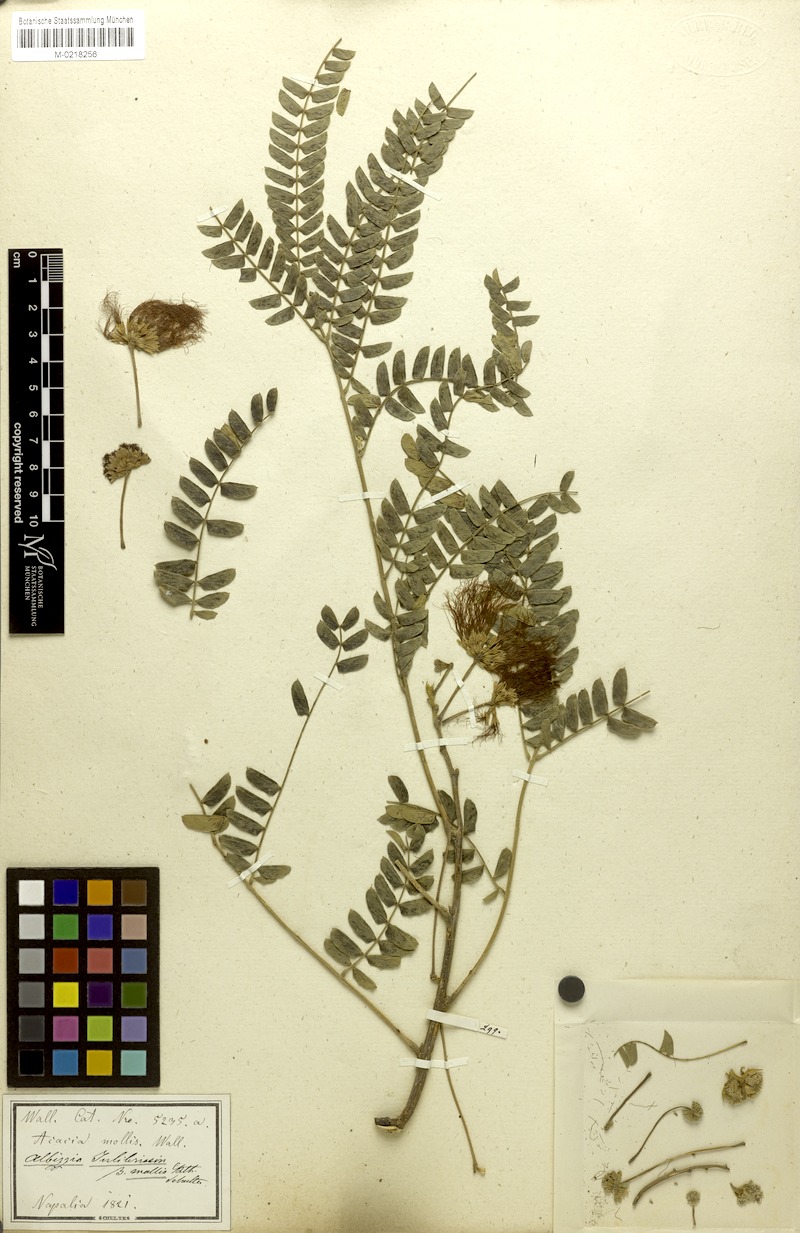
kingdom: Plantae
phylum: Tracheophyta
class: Magnoliopsida
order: Fabales
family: Fabaceae
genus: Albizia
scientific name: Albizia julibrissin
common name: Silktree
